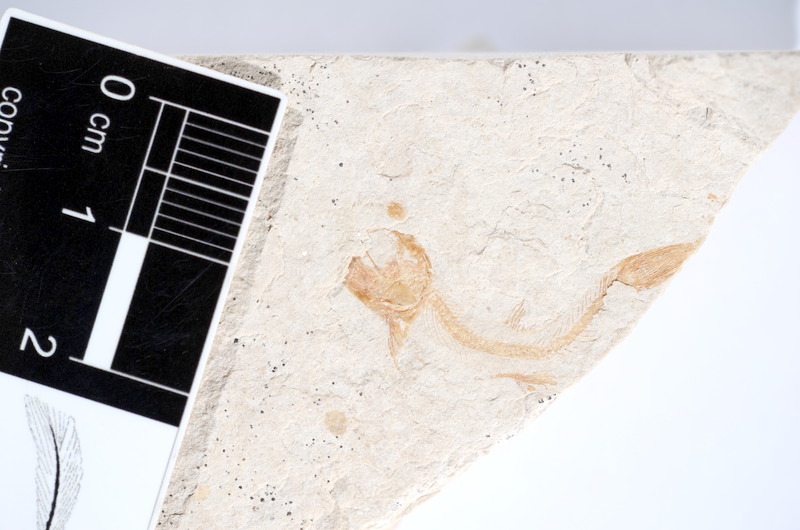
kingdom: Animalia
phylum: Chordata
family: Ascalaboidae
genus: Tharsis
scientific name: Tharsis dubius
